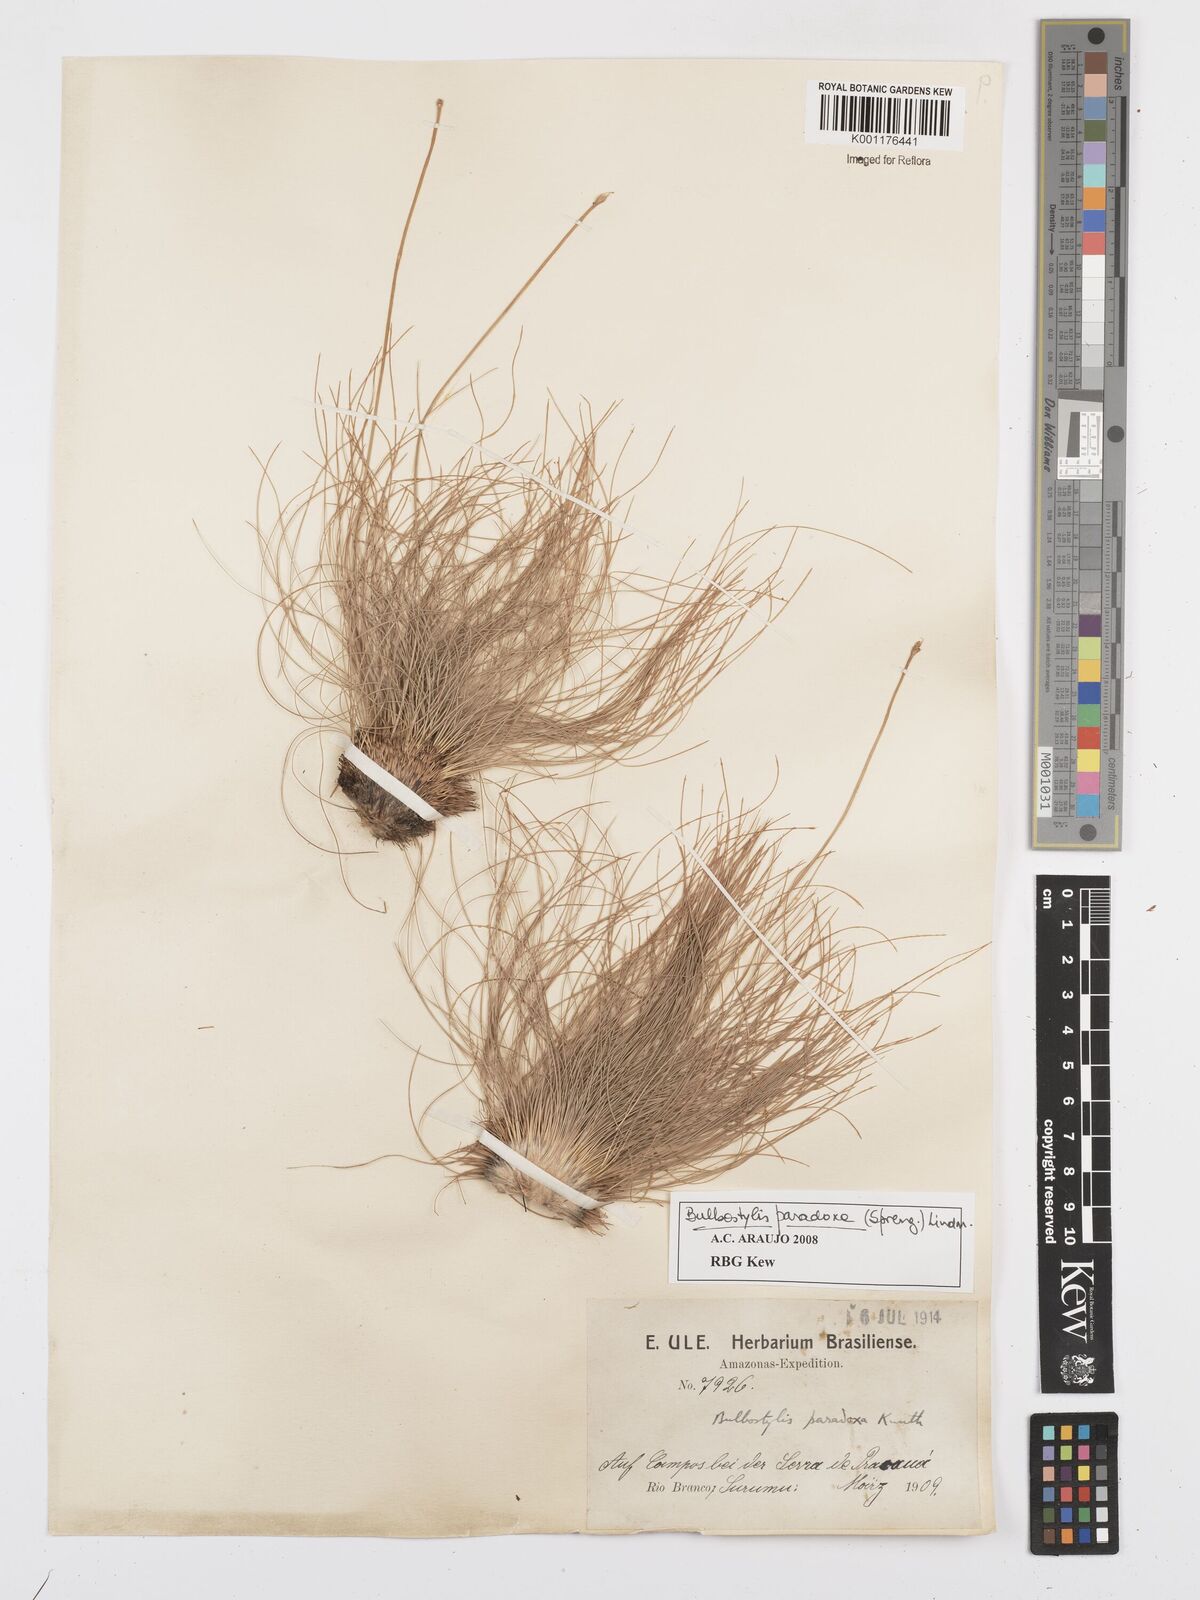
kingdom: Plantae
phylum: Tracheophyta
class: Liliopsida
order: Poales
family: Cyperaceae
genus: Bulbostylis
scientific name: Bulbostylis paradoxa
